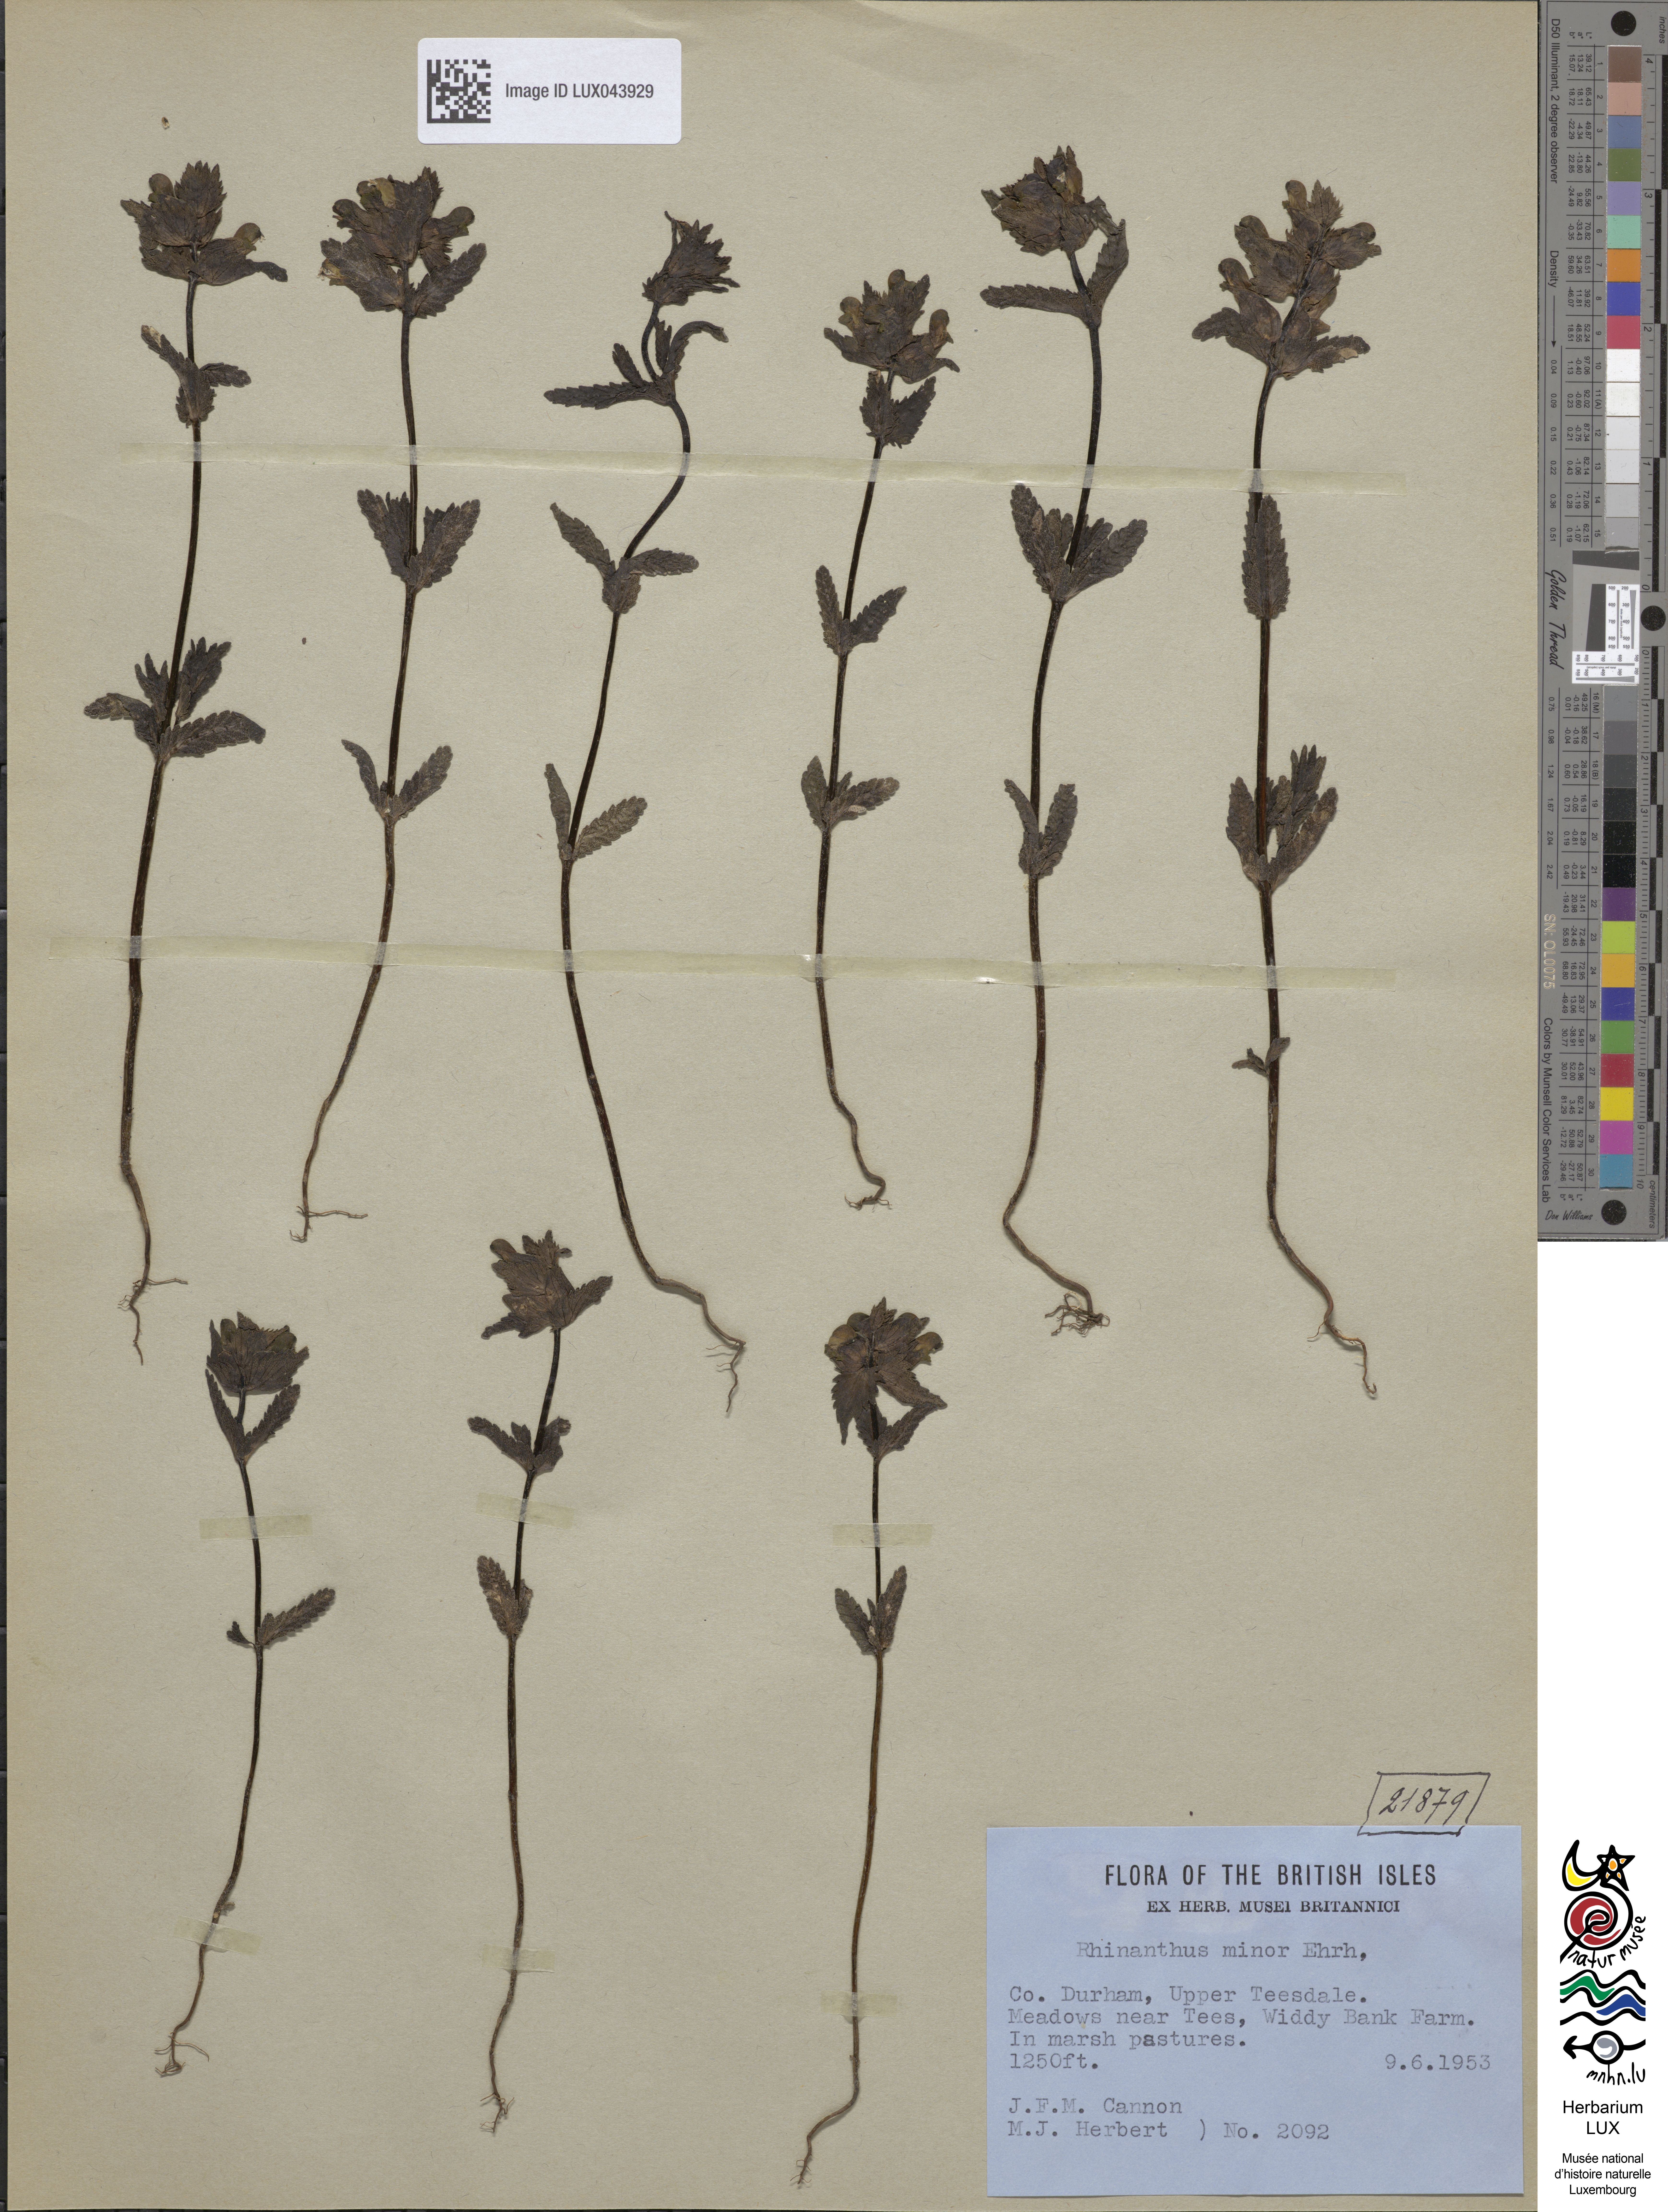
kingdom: Plantae
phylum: Tracheophyta
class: Magnoliopsida
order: Lamiales
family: Orobanchaceae
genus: Rhinanthus
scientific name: Rhinanthus minor
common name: Yellow-rattle
